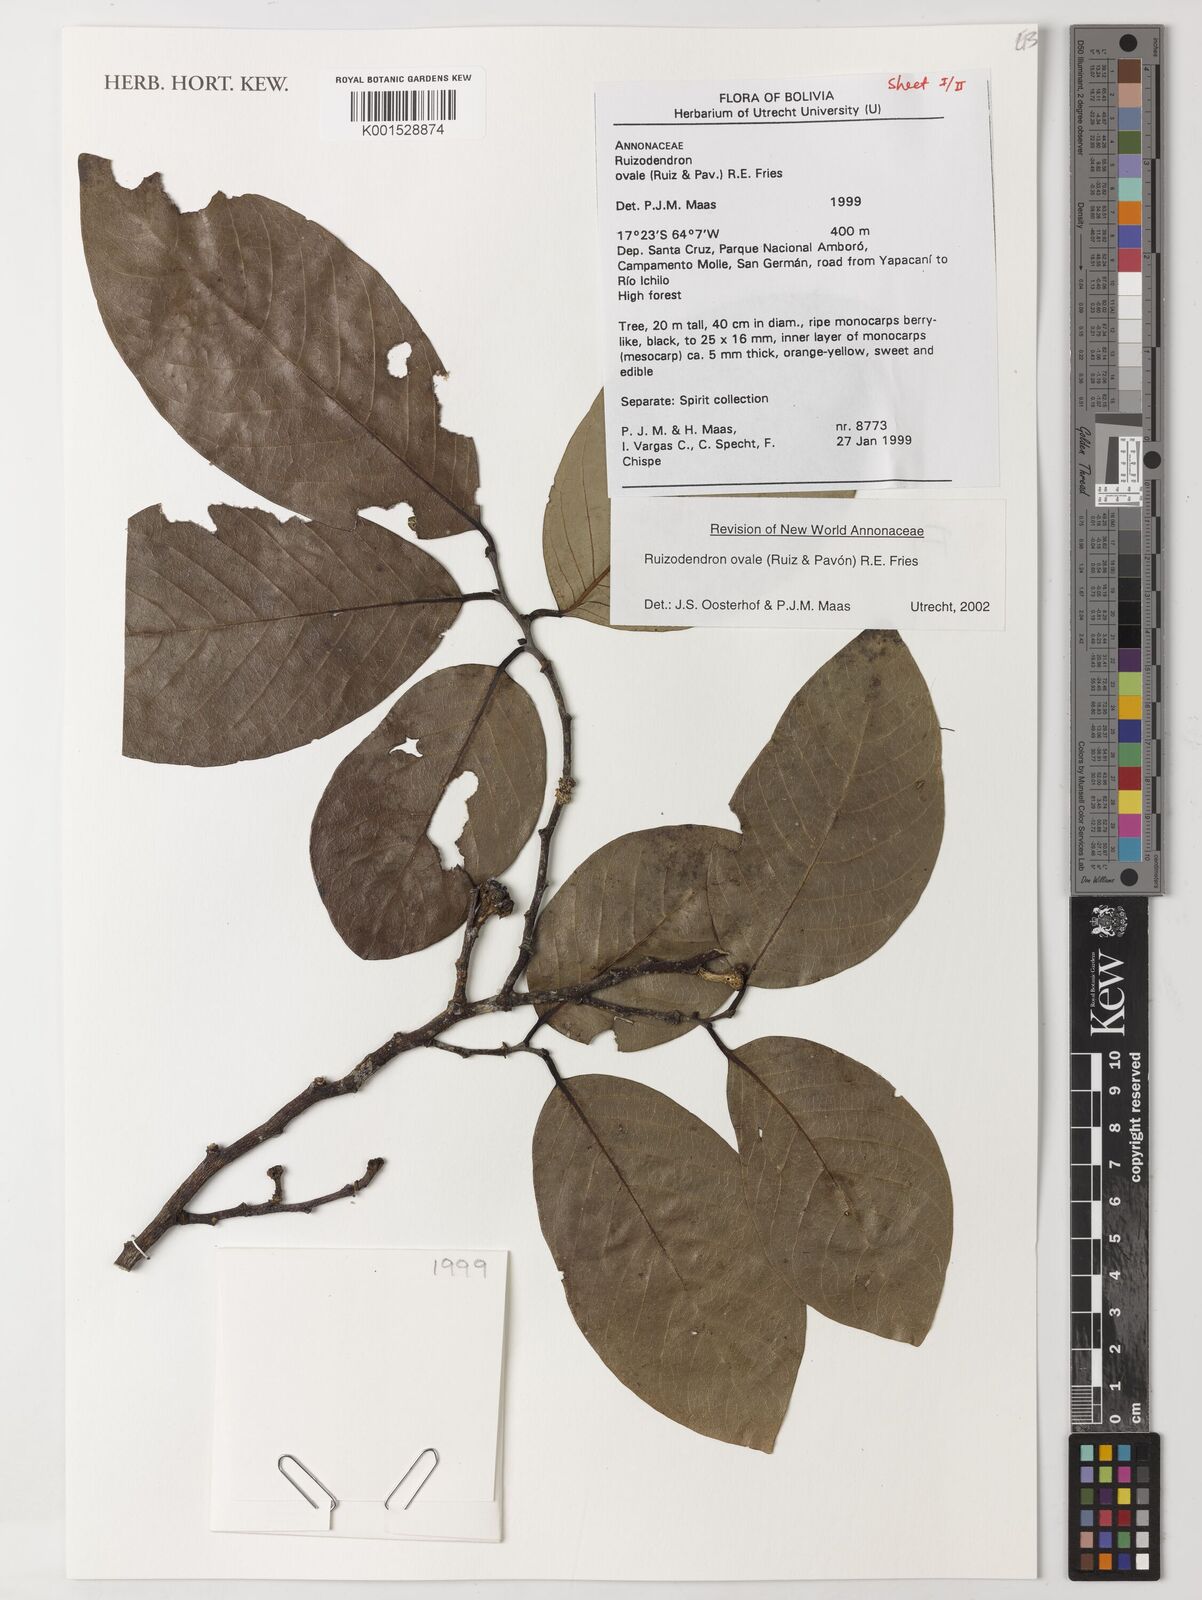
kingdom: Plantae
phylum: Tracheophyta
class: Magnoliopsida
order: Magnoliales
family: Annonaceae
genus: Ruizodendron
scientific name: Ruizodendron ovale
